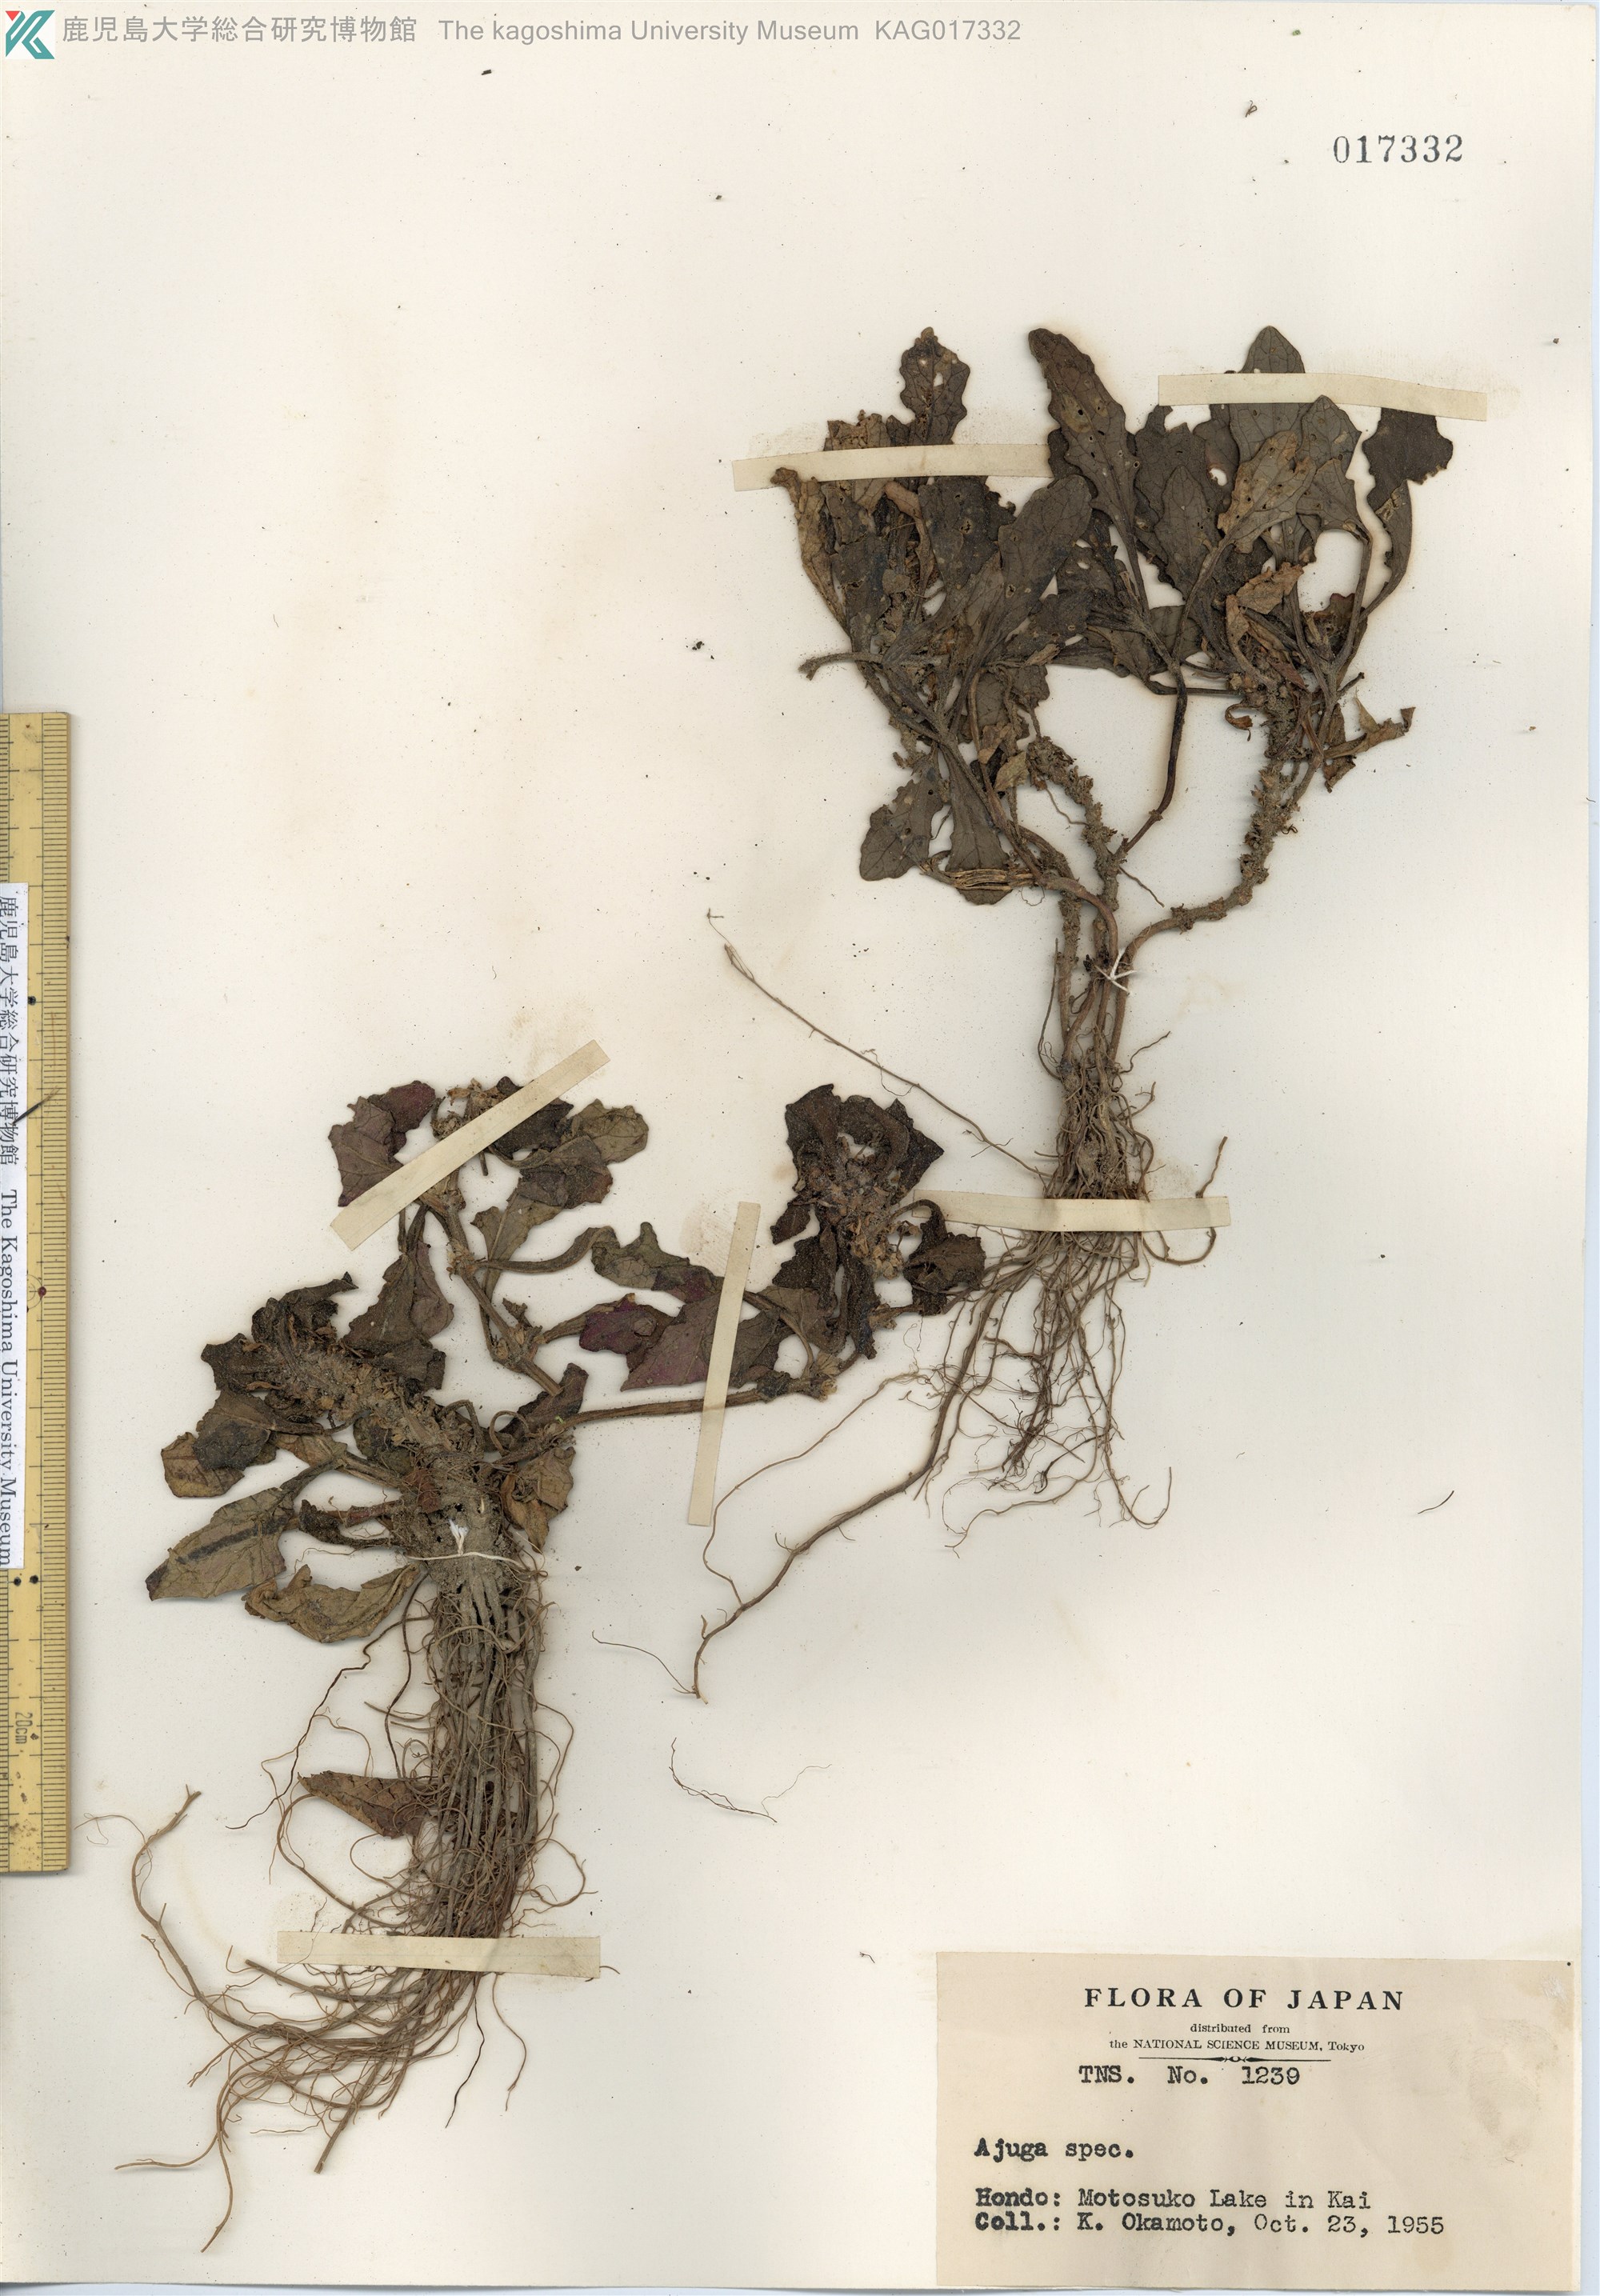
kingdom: Plantae
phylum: Tracheophyta
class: Magnoliopsida
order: Lamiales
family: Lamiaceae
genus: Ajuga
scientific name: Ajuga nipponensis
